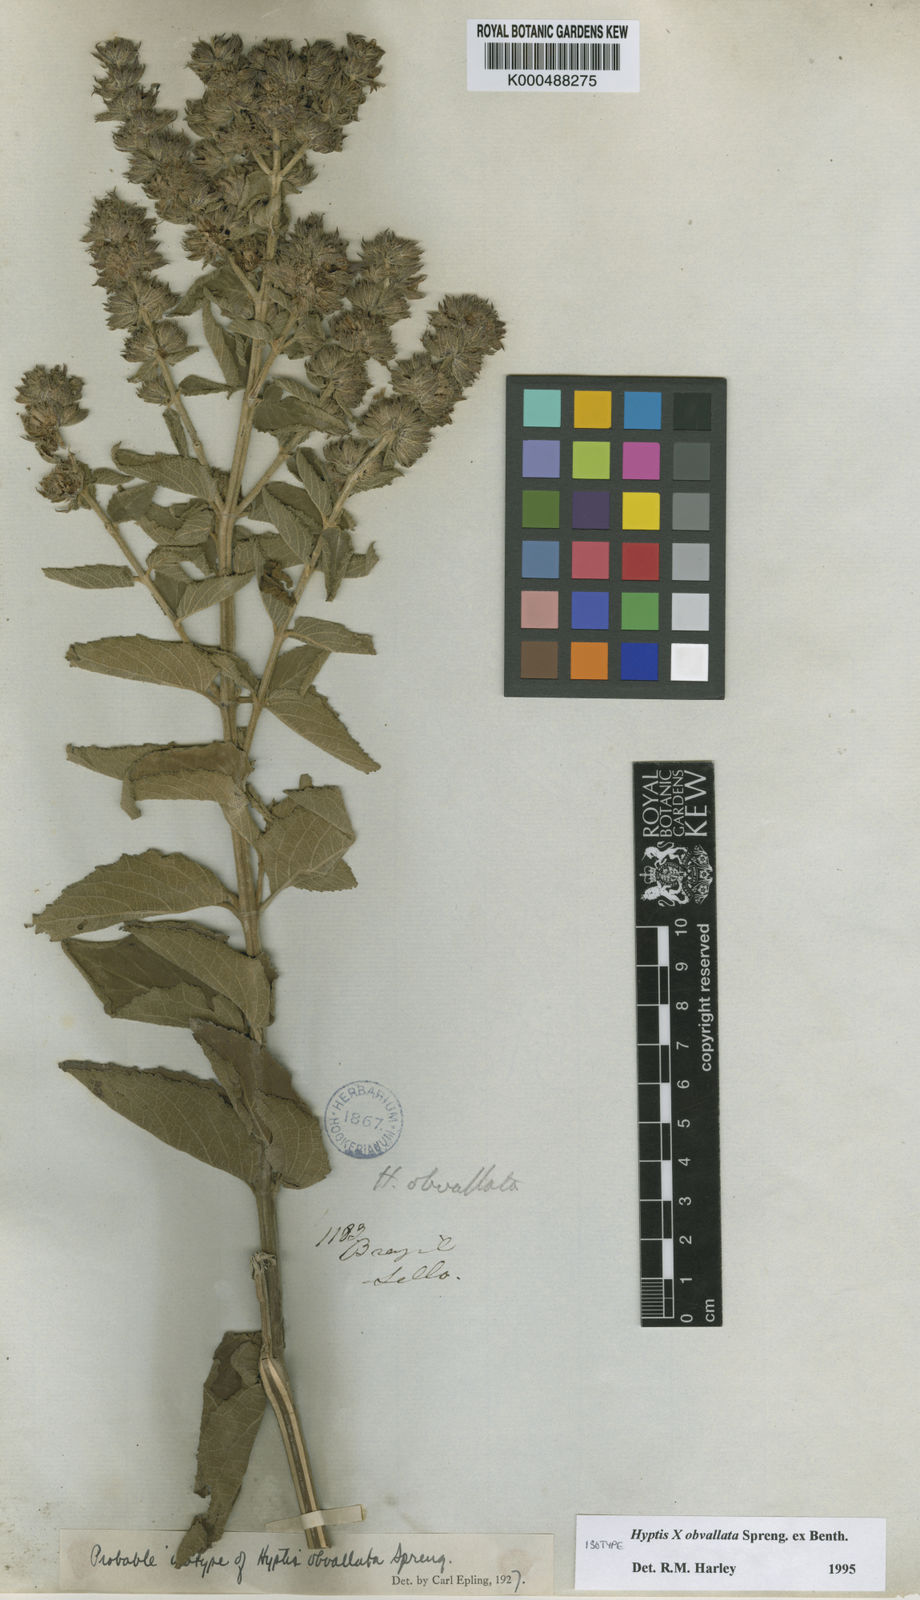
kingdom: Plantae
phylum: Tracheophyta
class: Magnoliopsida
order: Lamiales
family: Lamiaceae
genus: Cantinoa
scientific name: Cantinoa obvallata
